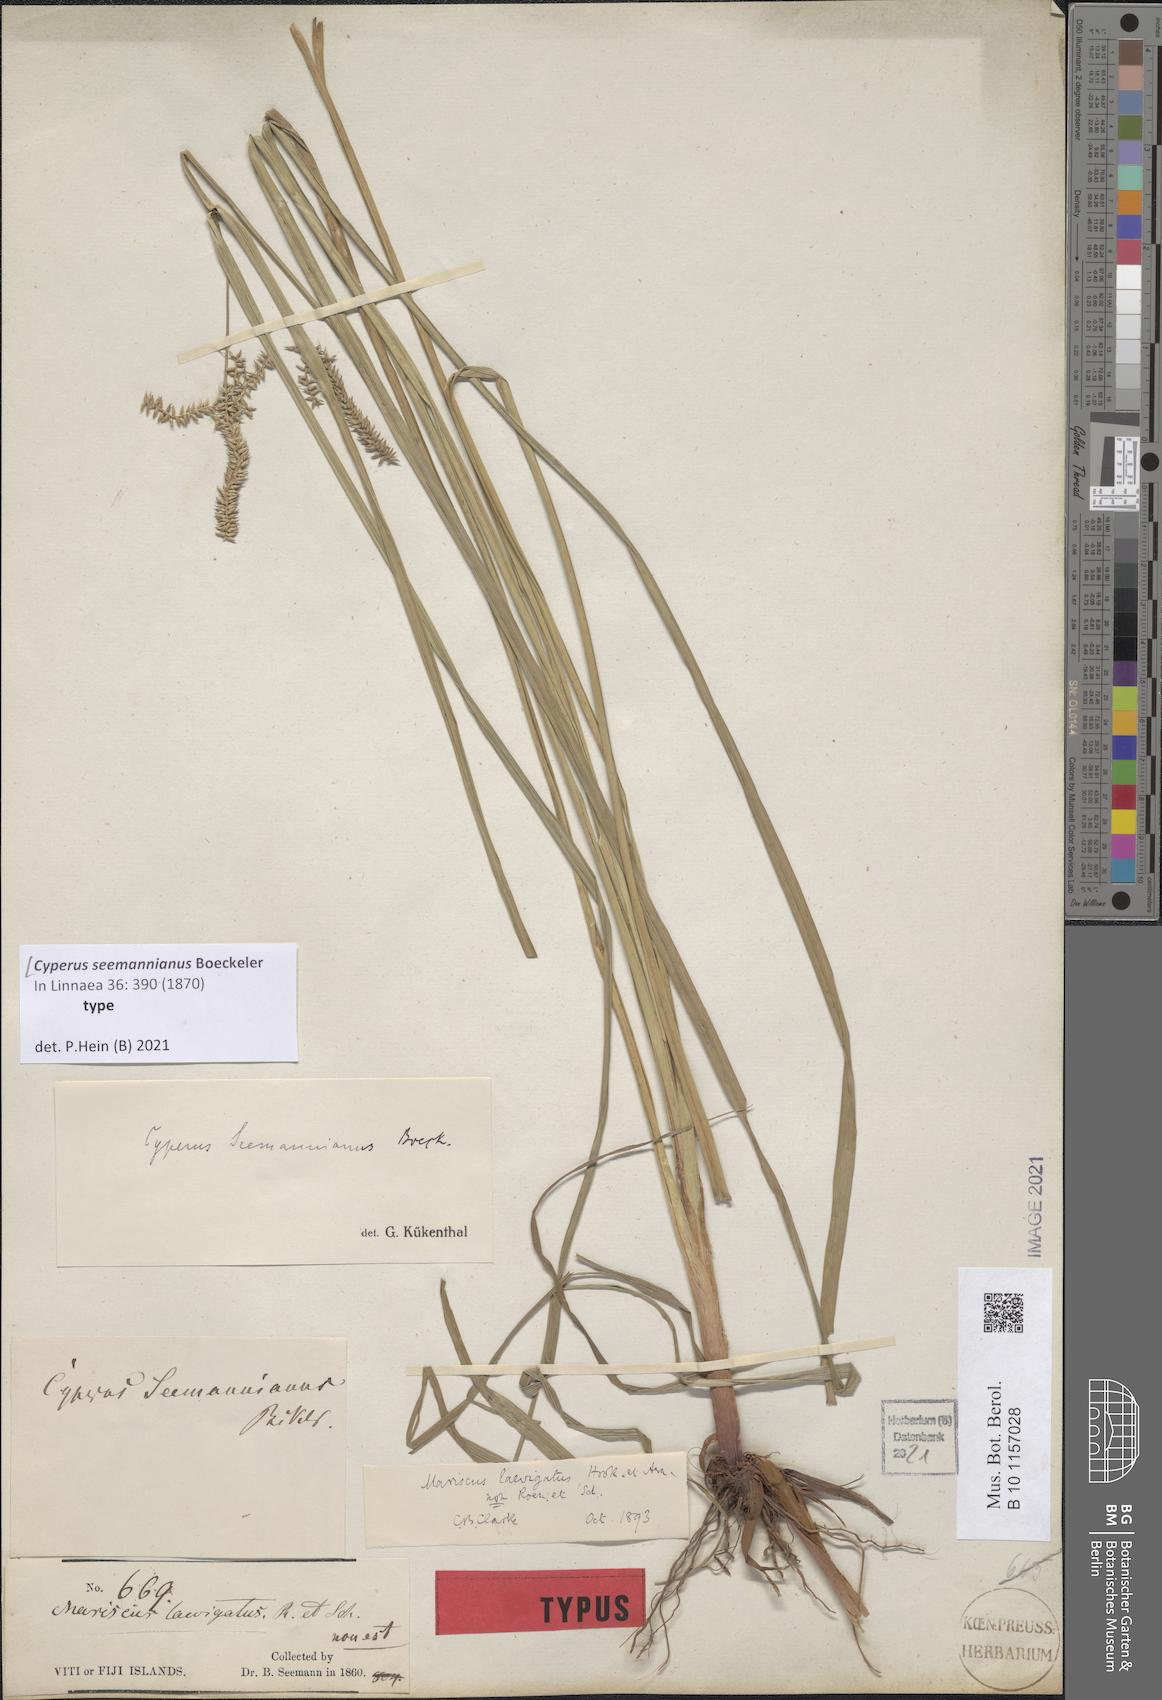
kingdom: Plantae
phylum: Tracheophyta
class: Liliopsida
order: Poales
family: Cyperaceae
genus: Cyperus
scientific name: Cyperus seemannianus
